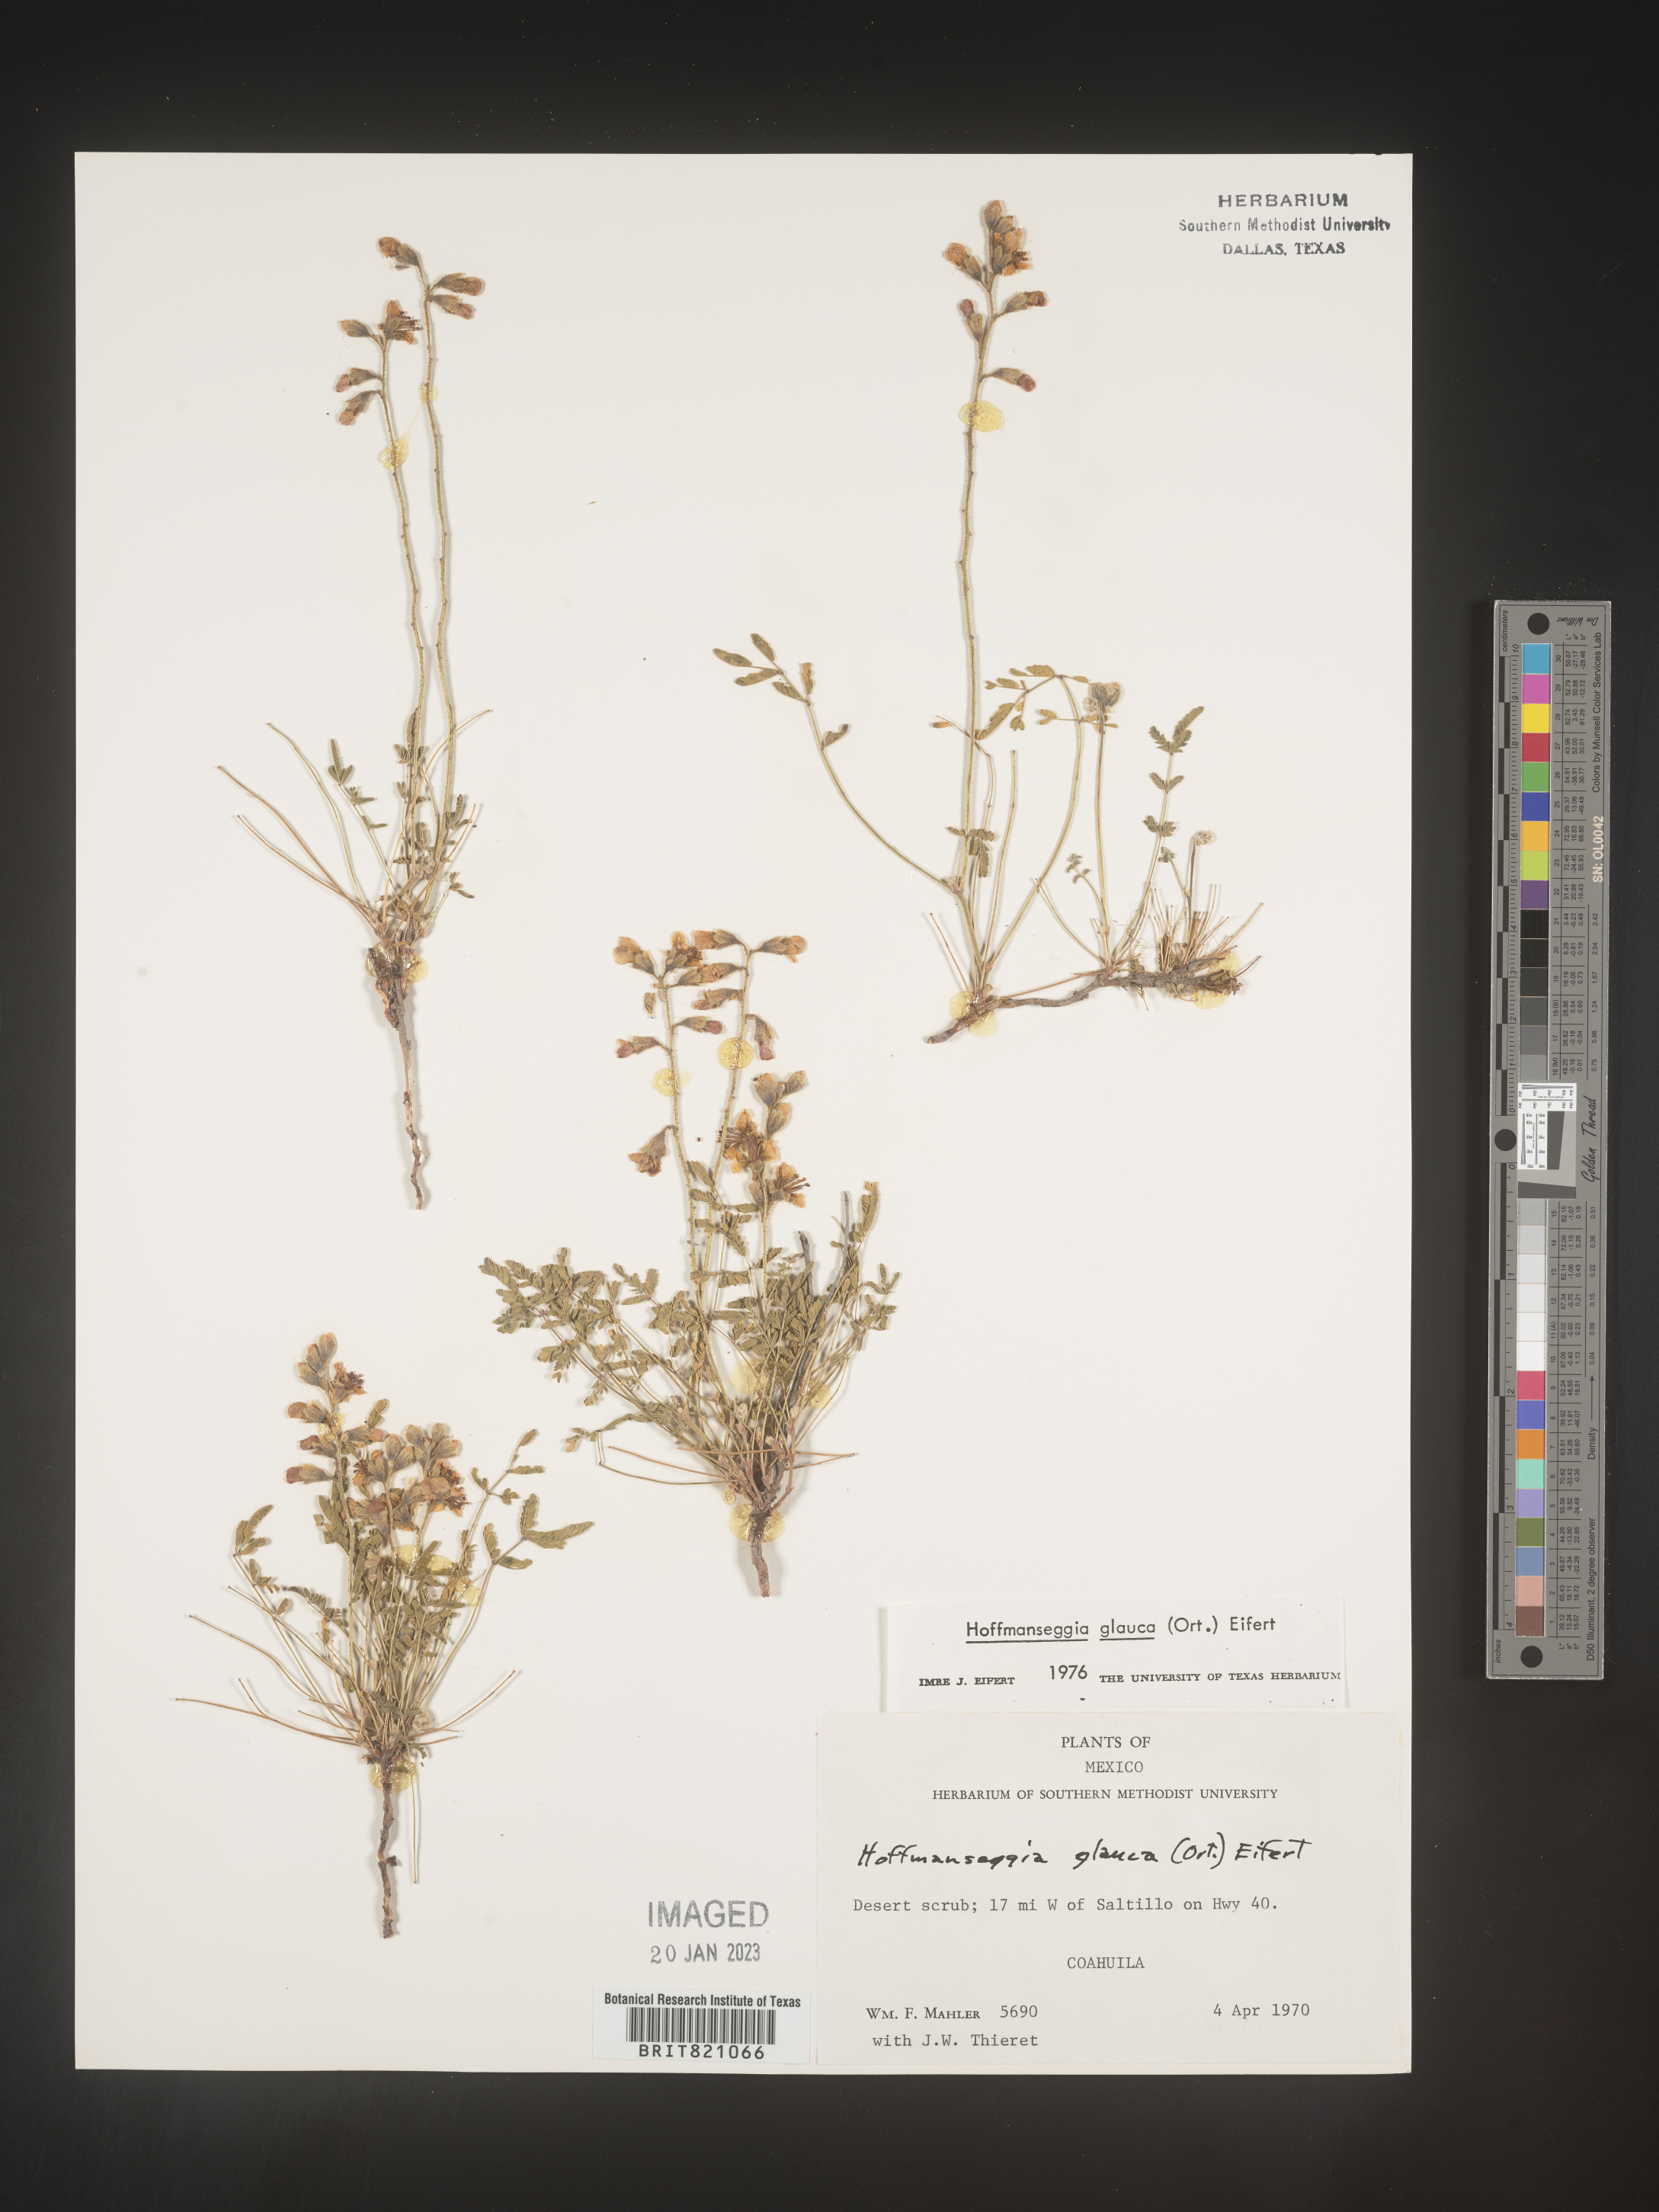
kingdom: Plantae
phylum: Tracheophyta
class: Magnoliopsida
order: Fabales
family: Fabaceae
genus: Hoffmannseggia
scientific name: Hoffmannseggia
